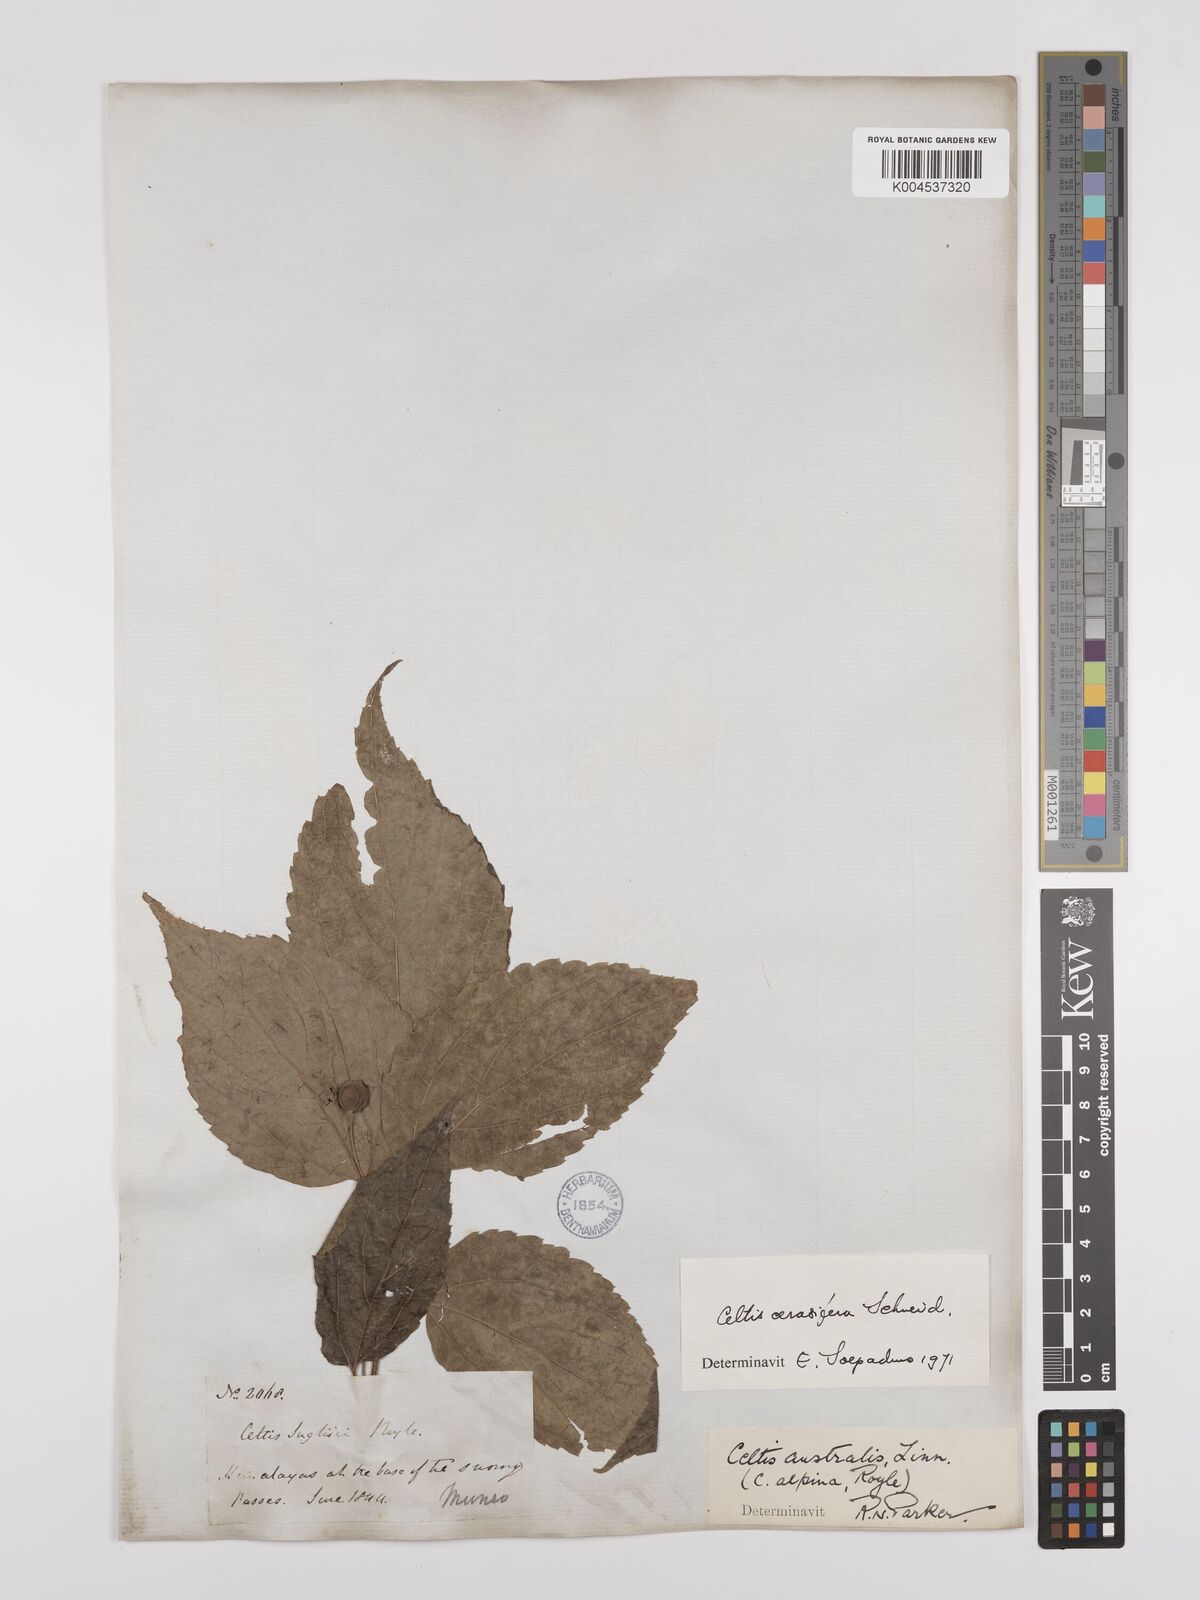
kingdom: Plantae
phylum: Tracheophyta
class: Magnoliopsida
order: Rosales
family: Cannabaceae
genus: Celtis
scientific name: Celtis cerasifera
